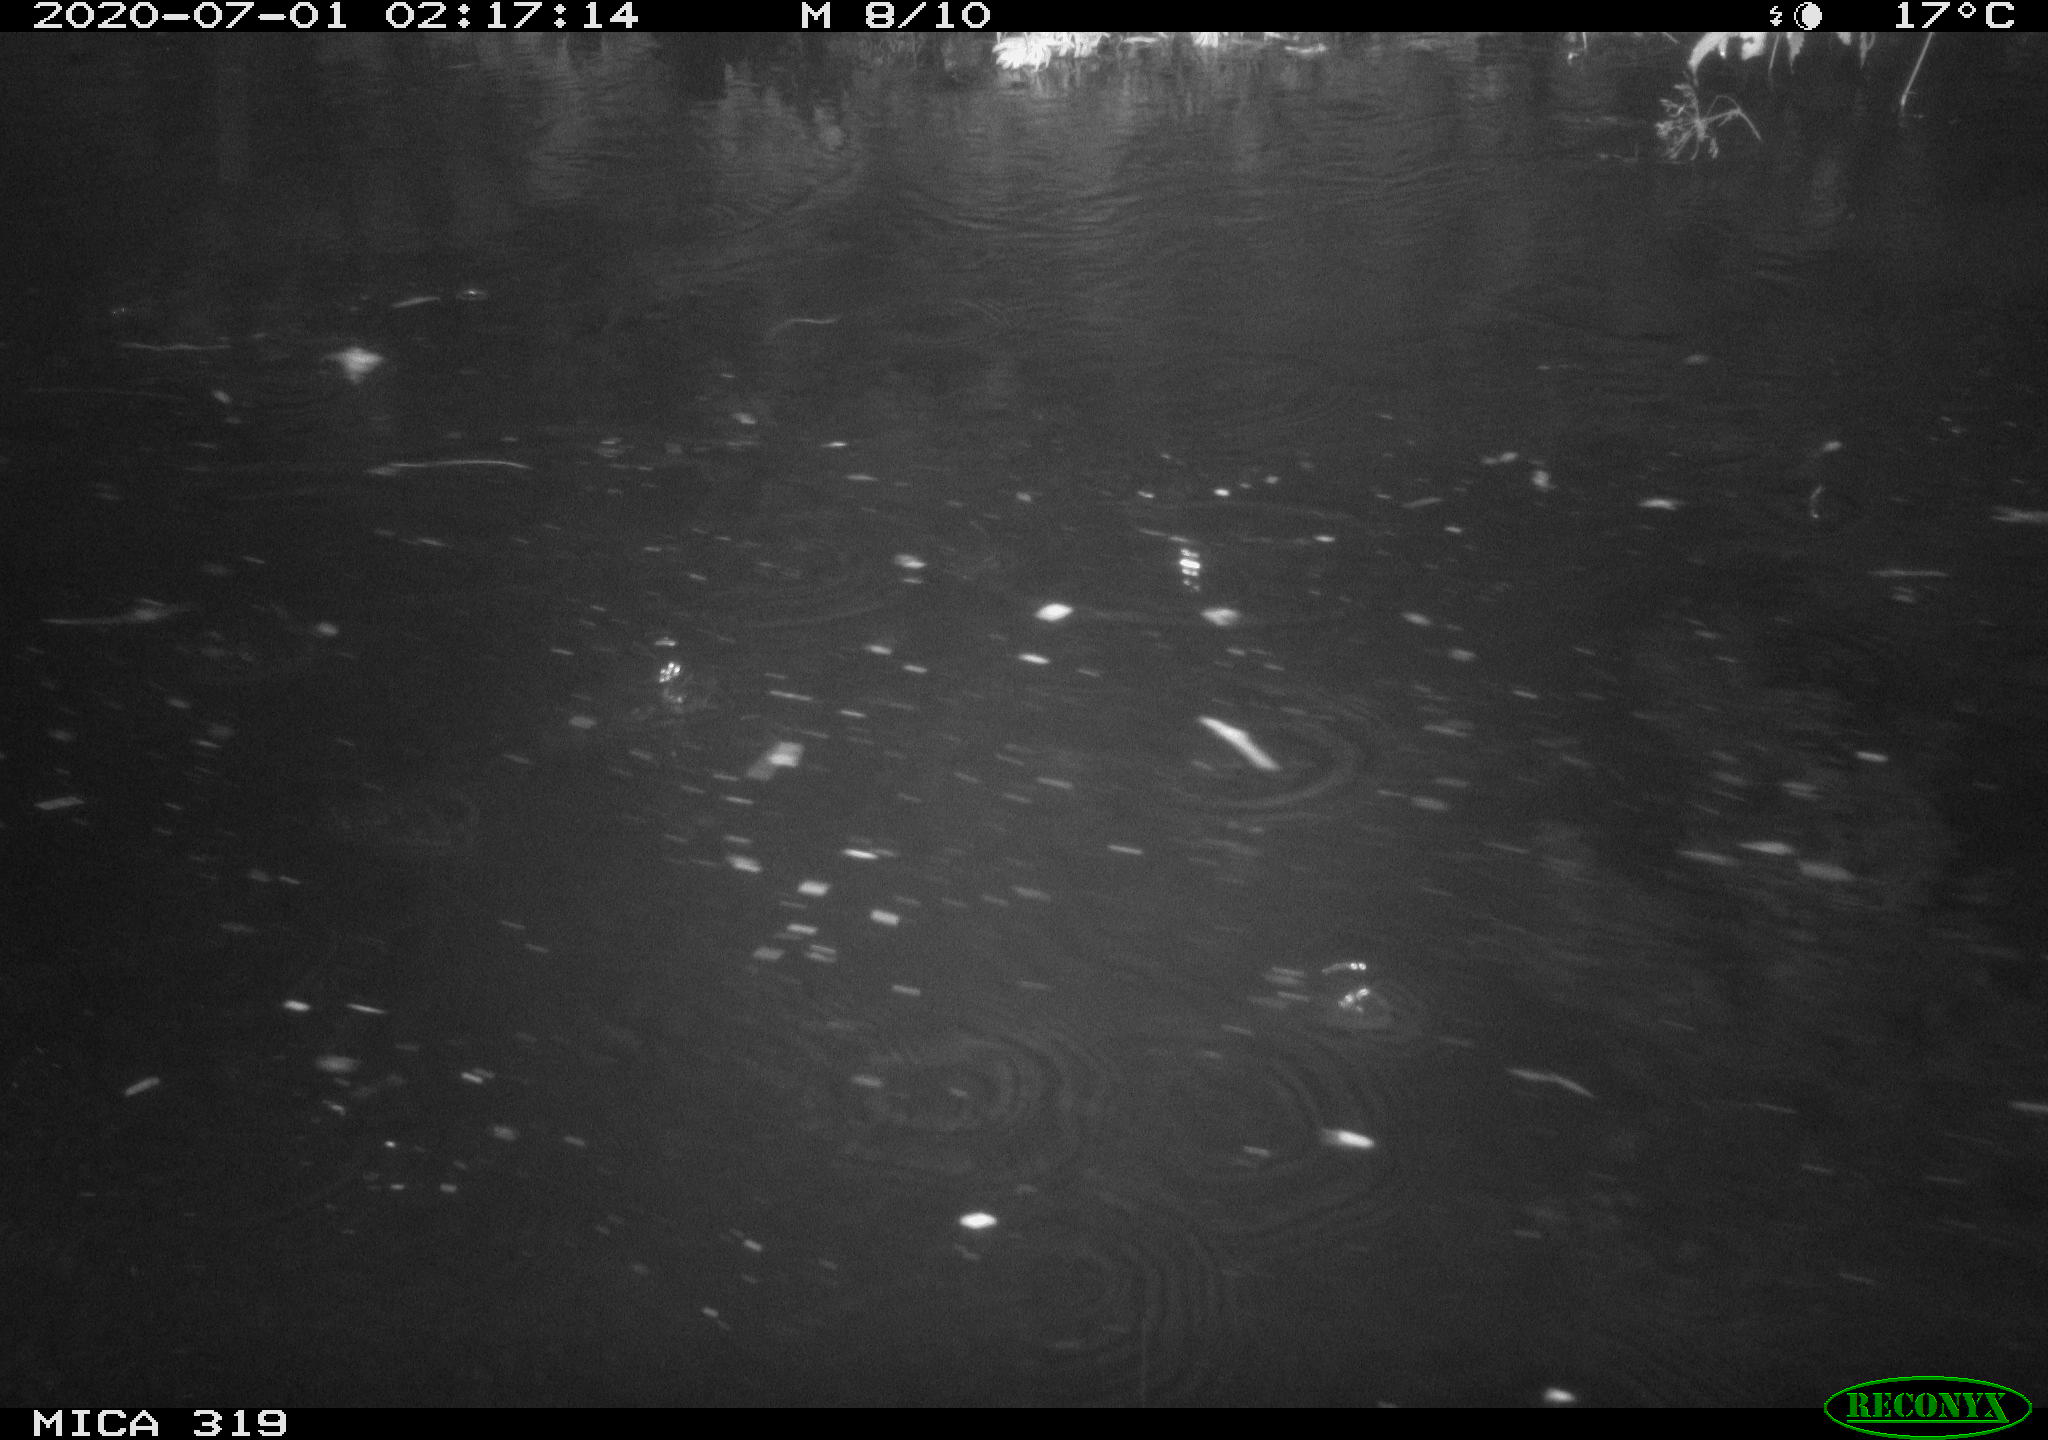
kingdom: Animalia
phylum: Chordata
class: Aves
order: Anseriformes
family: Anatidae
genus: Anas
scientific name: Anas platyrhynchos
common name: Mallard
